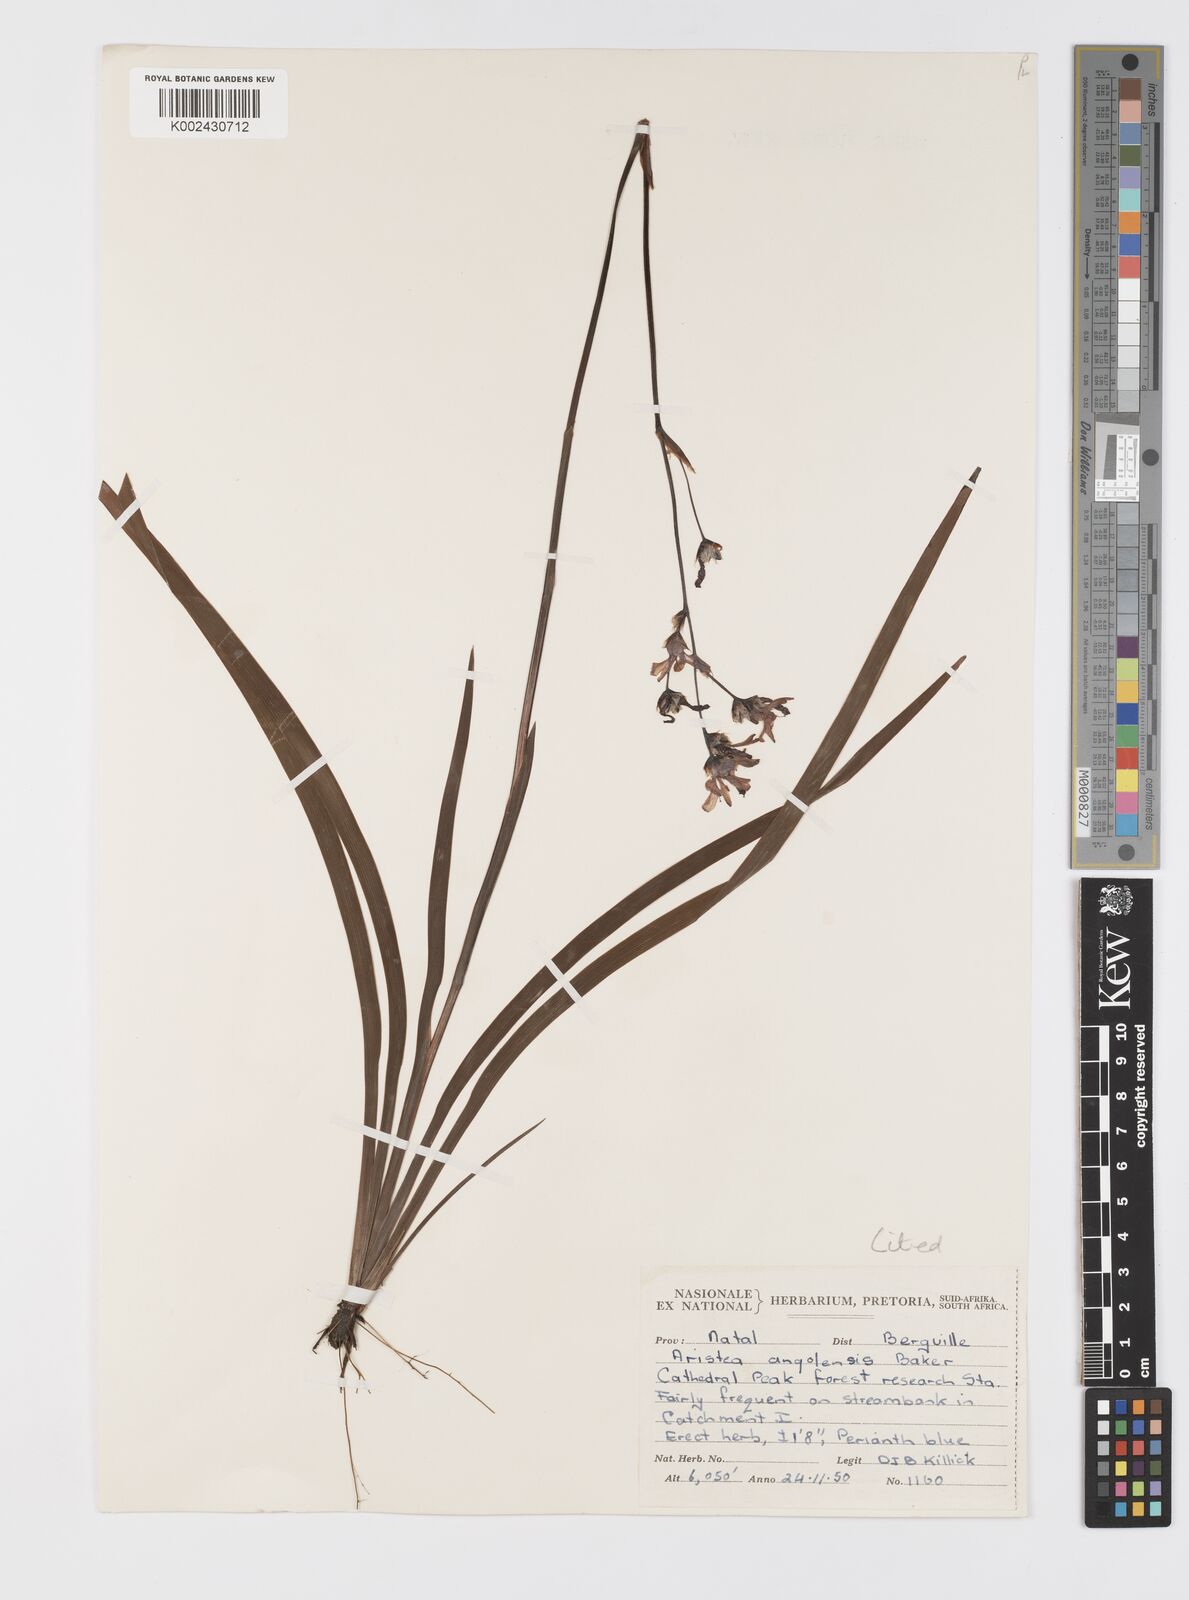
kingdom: Plantae
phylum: Tracheophyta
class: Liliopsida
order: Asparagales
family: Iridaceae
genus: Aristea
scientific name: Aristea angolensis
